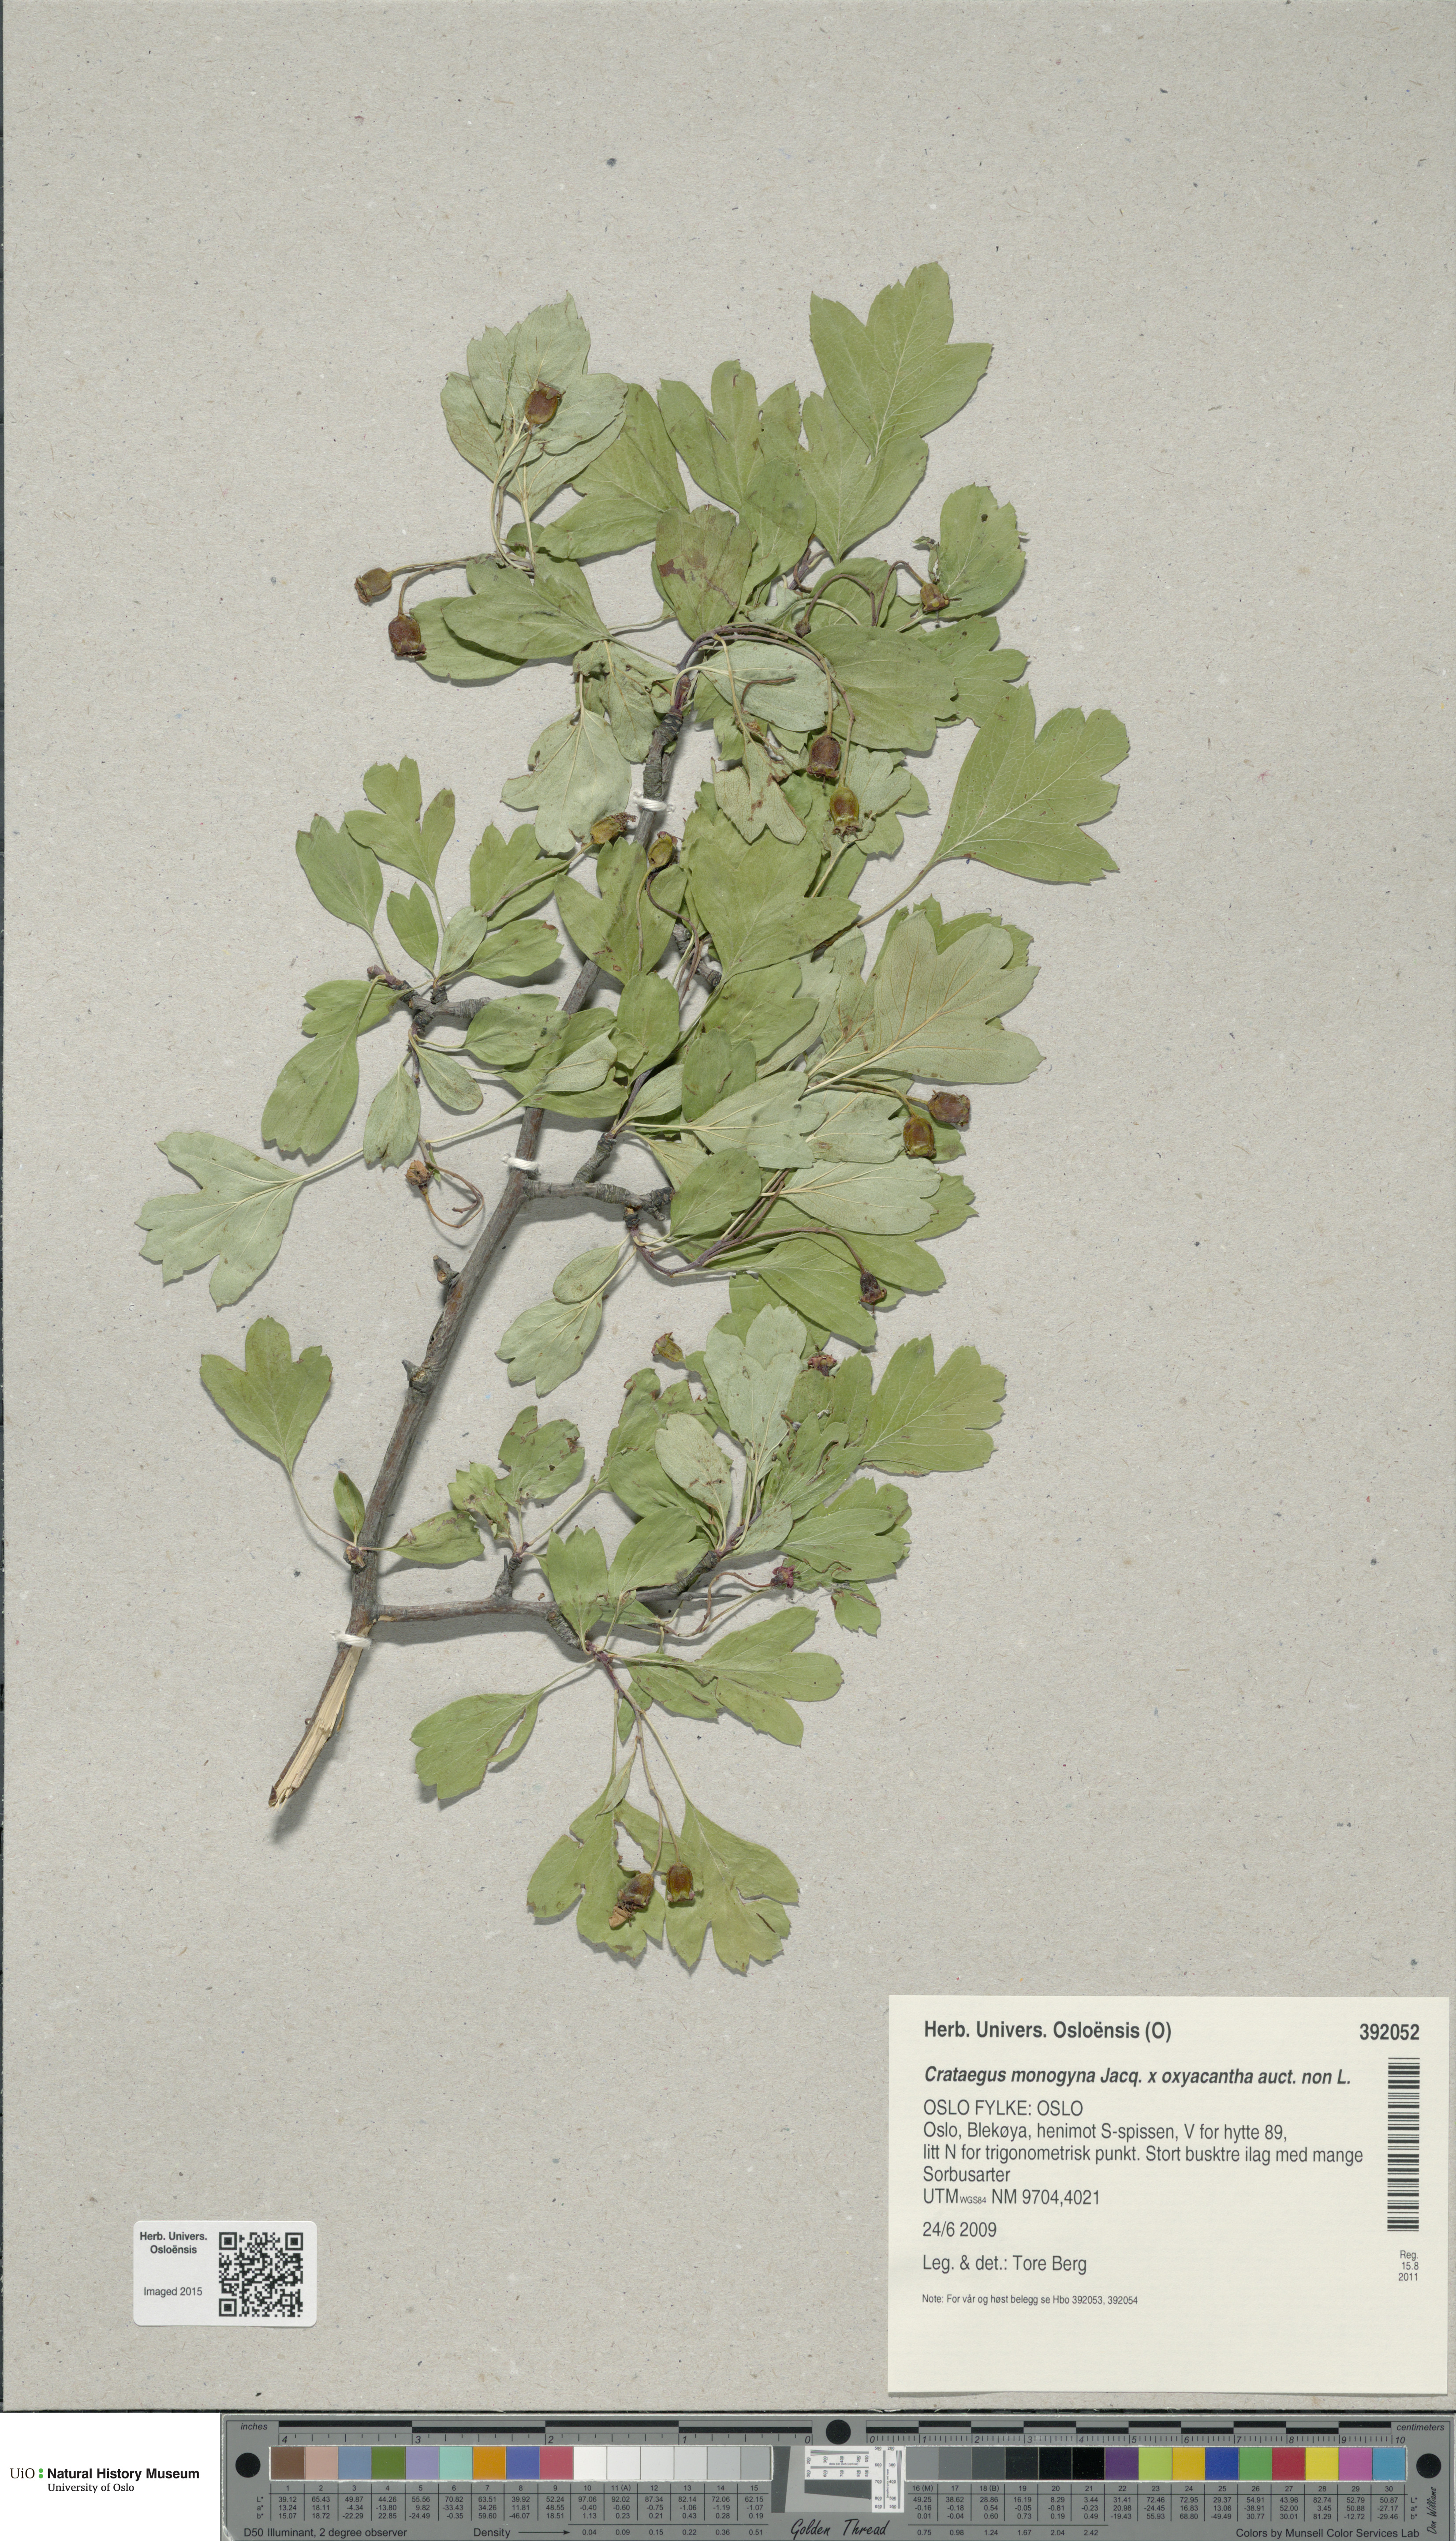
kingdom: Plantae
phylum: Tracheophyta
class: Magnoliopsida
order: Rosales
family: Rosaceae
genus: Crataegus
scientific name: Crataegus monogyna
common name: Hawthorn
